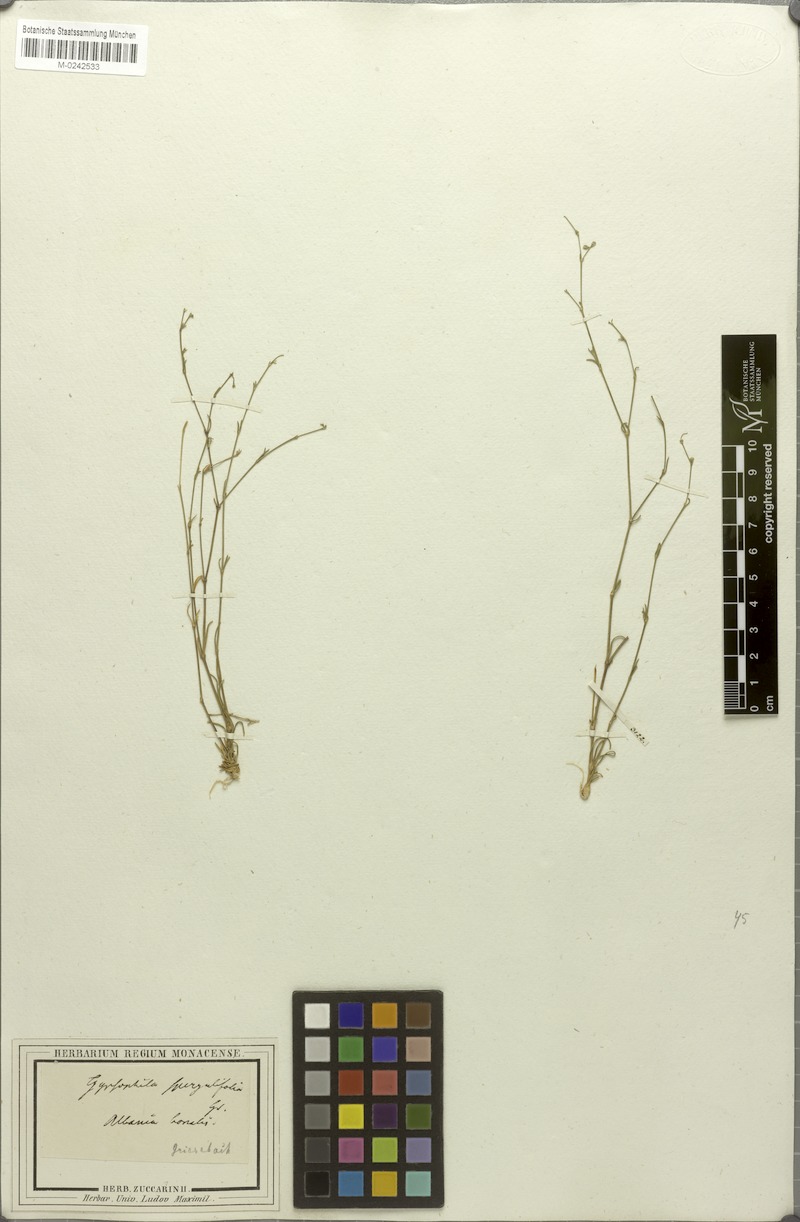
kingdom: Plantae
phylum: Tracheophyta
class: Magnoliopsida
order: Caryophyllales
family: Caryophyllaceae
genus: Balkana
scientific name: Balkana spergulifolia
